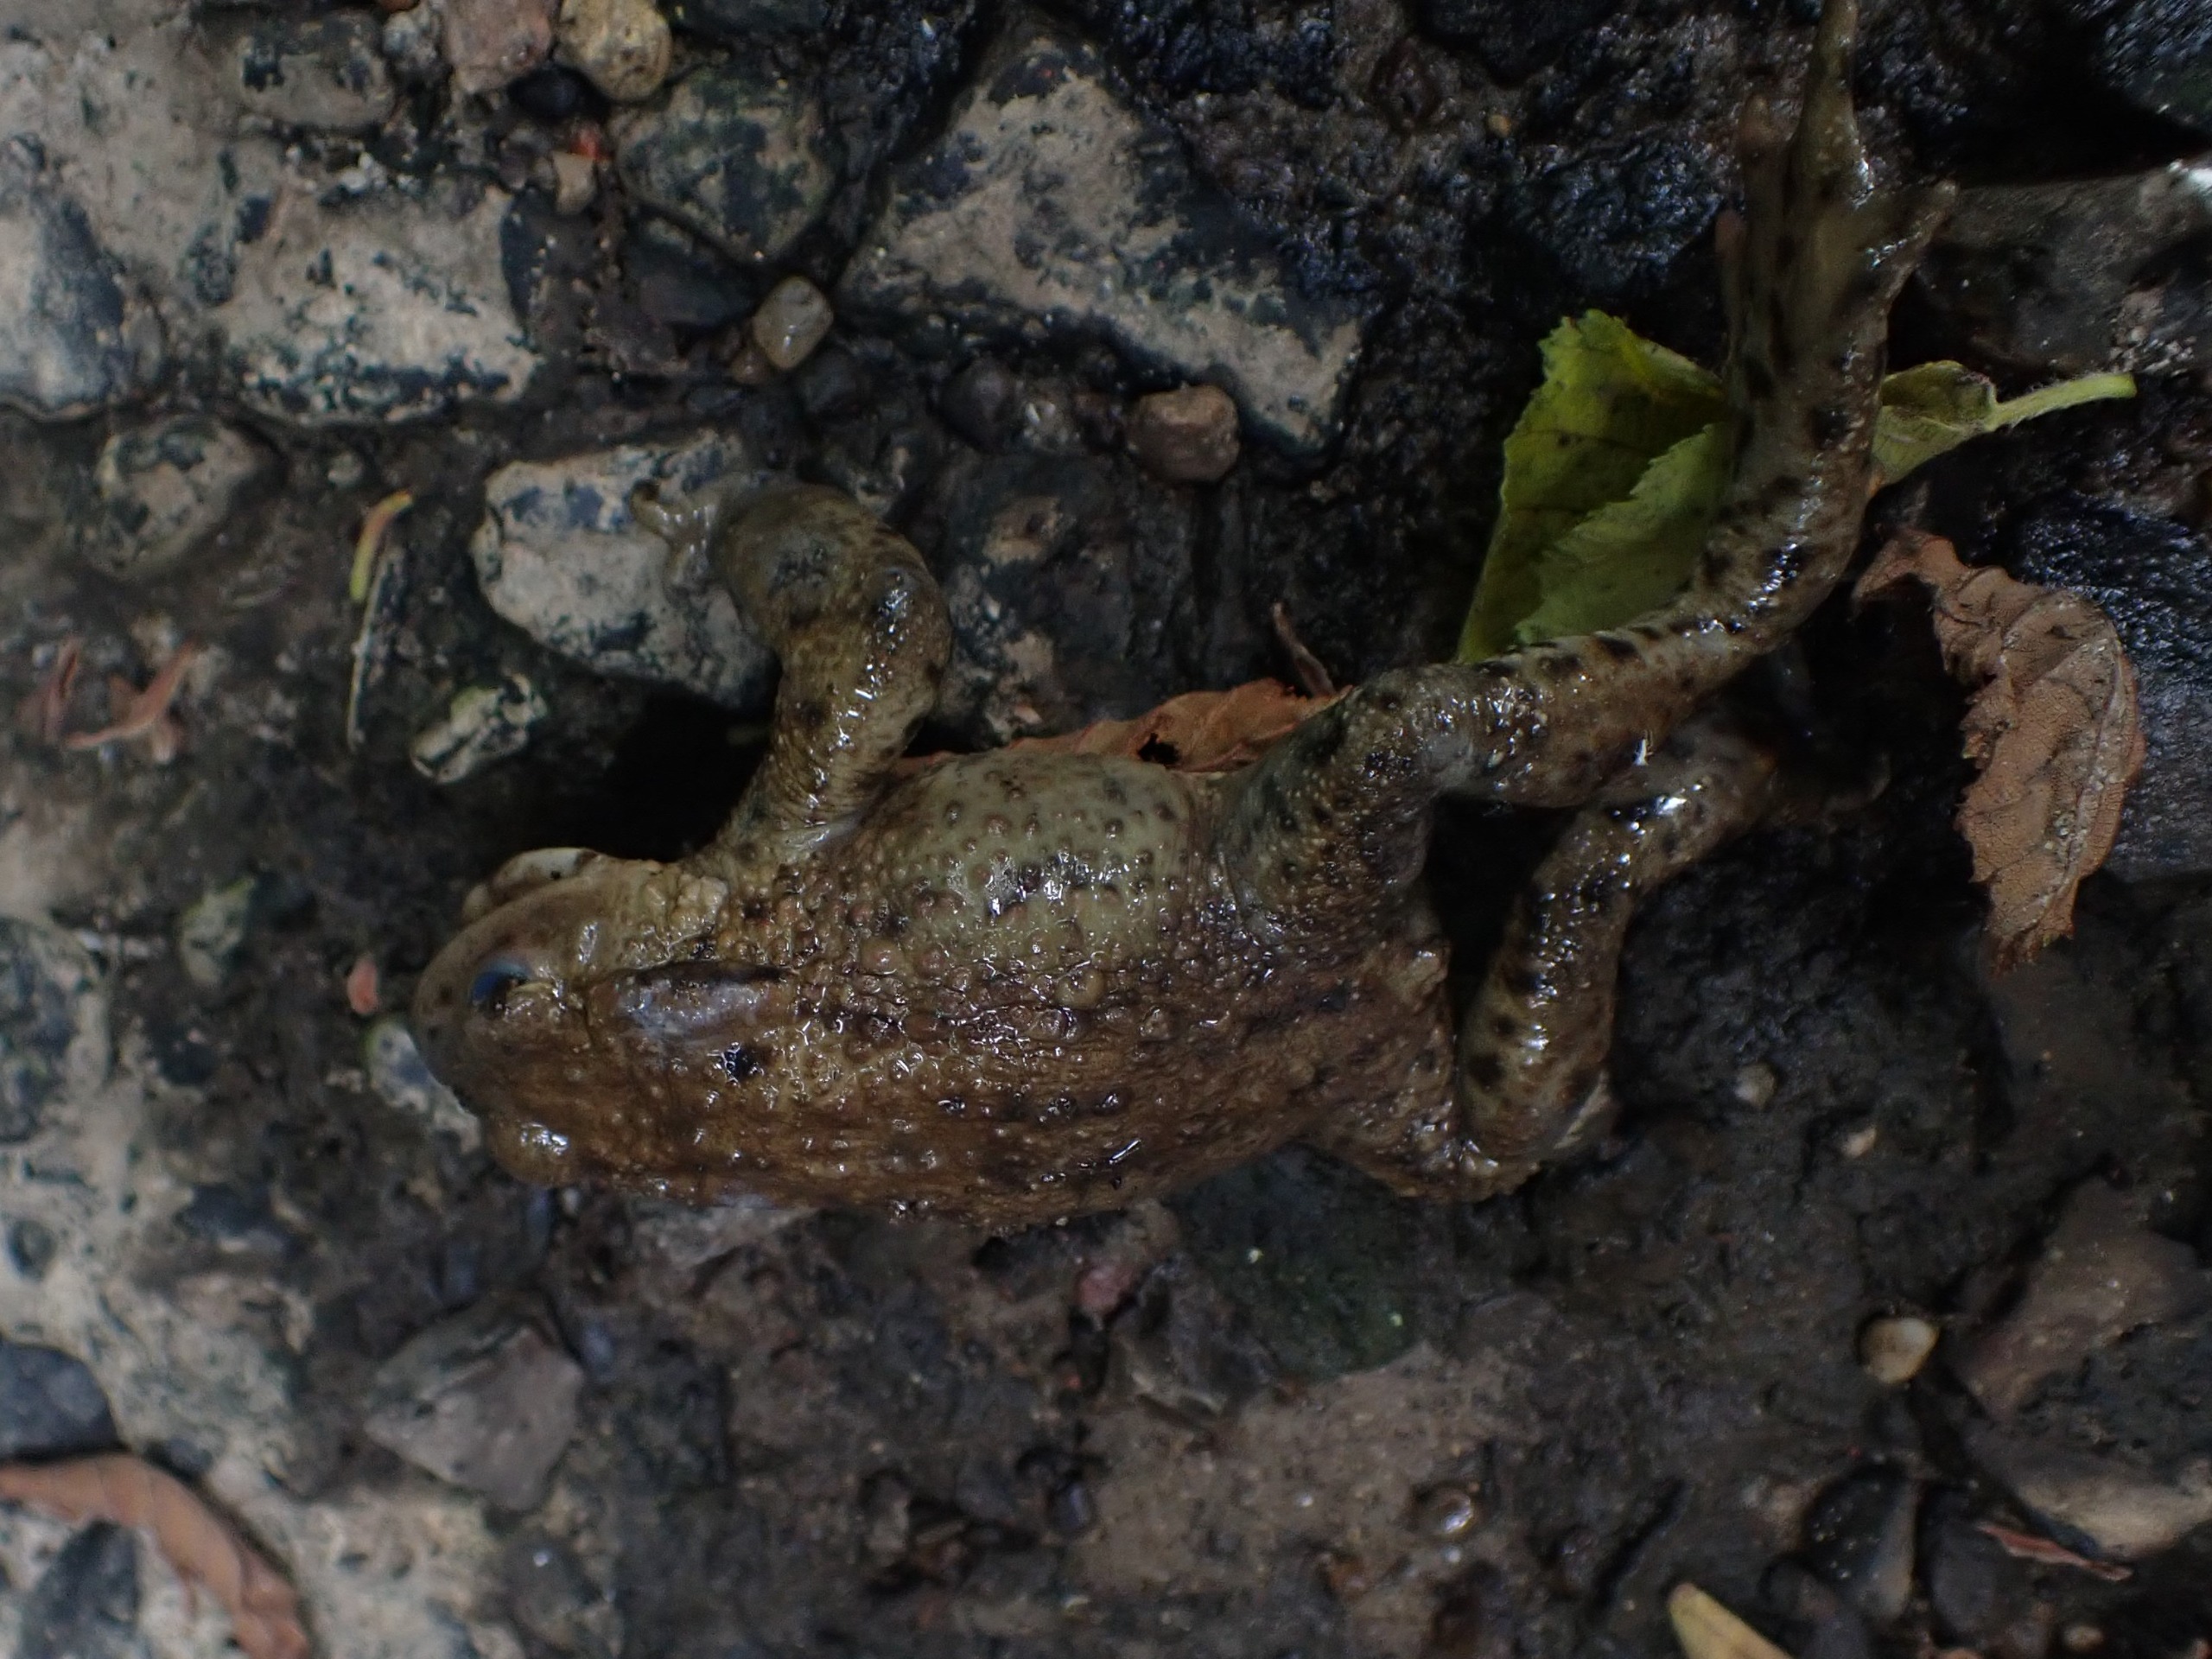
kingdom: Animalia
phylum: Chordata
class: Amphibia
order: Anura
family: Bufonidae
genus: Bufo
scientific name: Bufo bufo
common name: Skrubtudse
